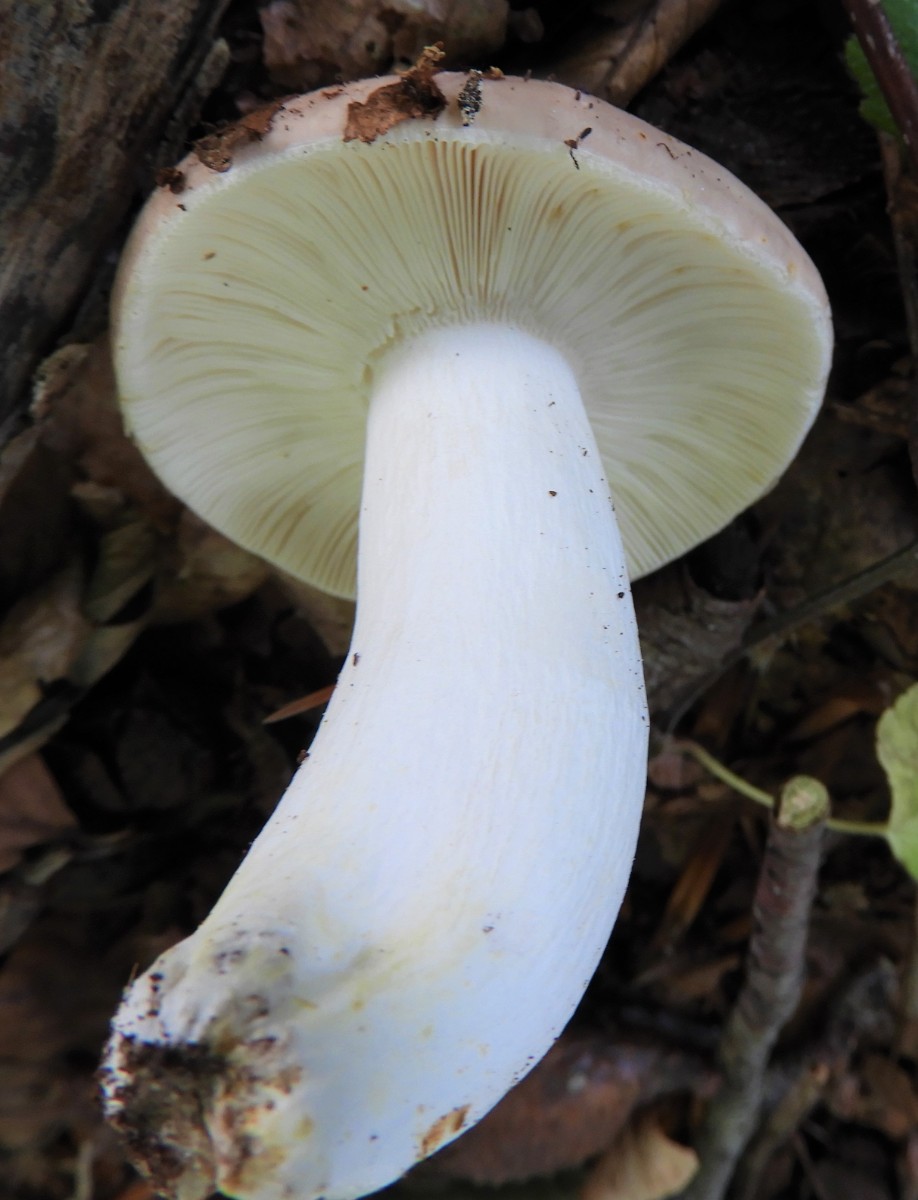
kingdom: Fungi
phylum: Basidiomycota
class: Agaricomycetes
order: Russulales
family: Russulaceae
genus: Russula
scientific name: Russula vesca
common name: spiselig skørhat
